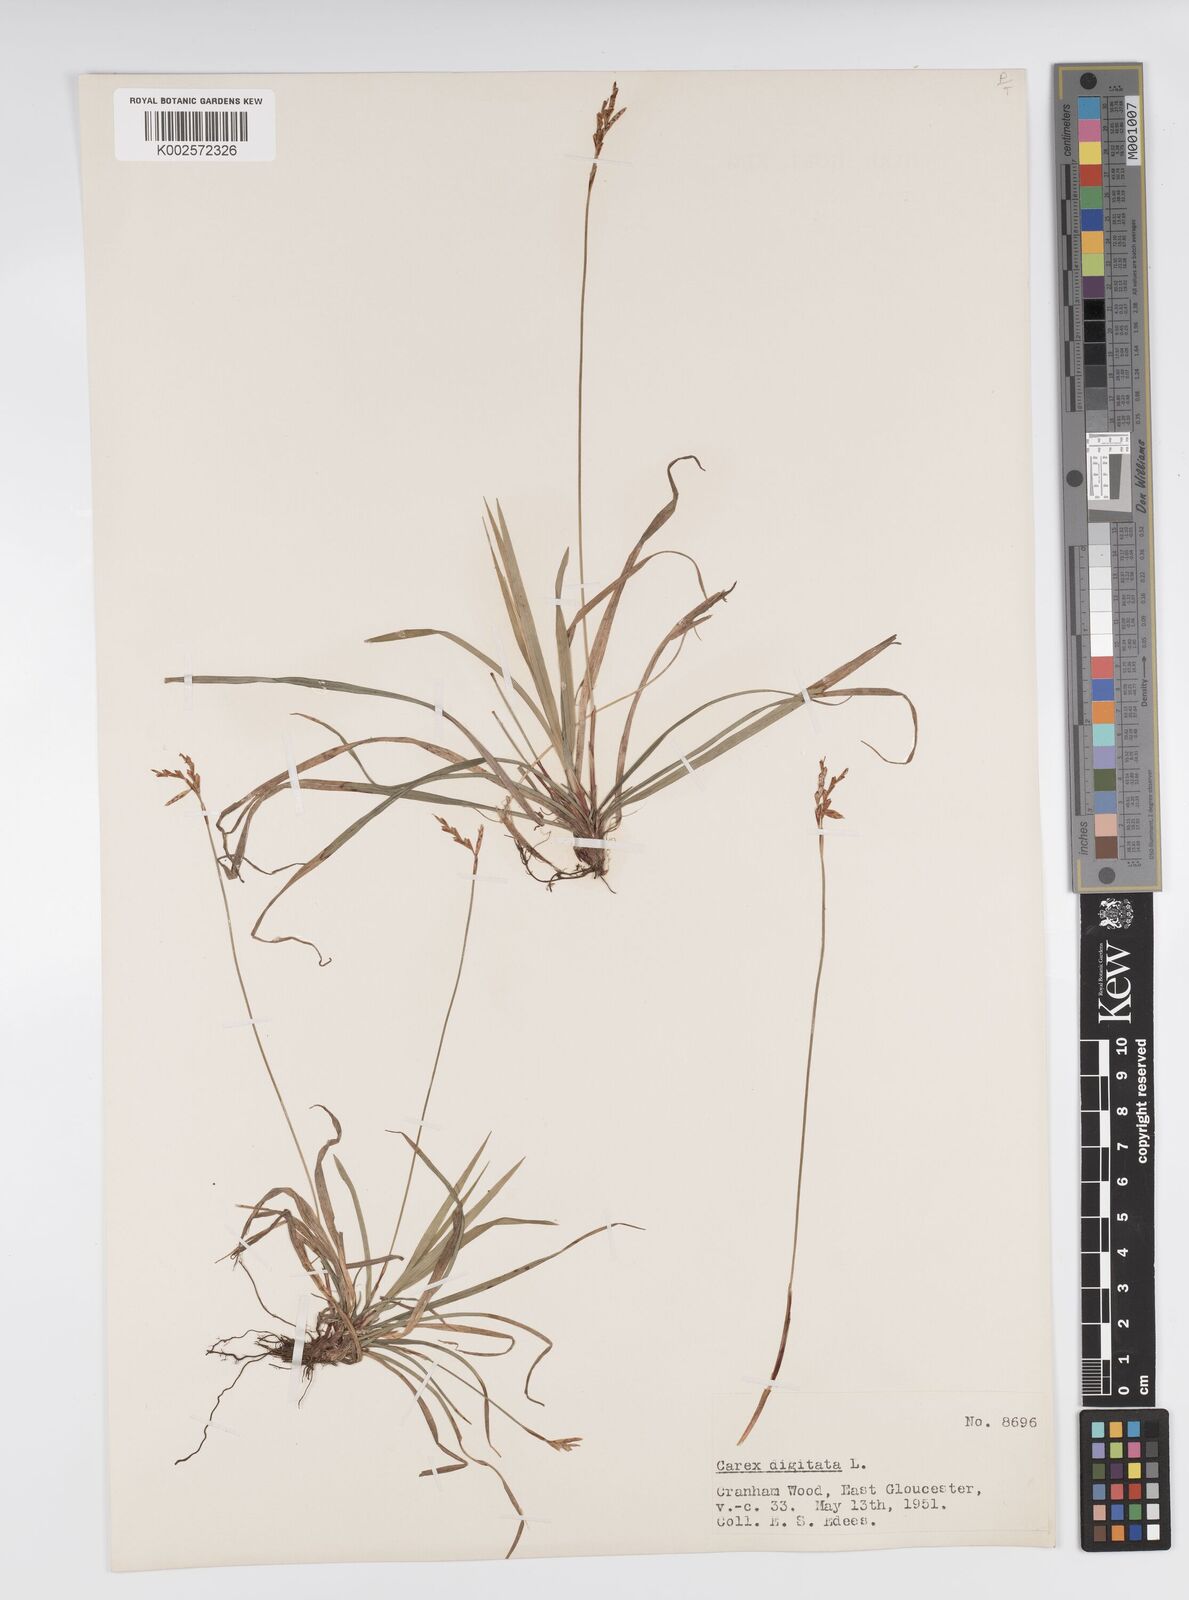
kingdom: Plantae
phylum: Tracheophyta
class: Liliopsida
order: Poales
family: Cyperaceae
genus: Carex
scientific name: Carex digitata
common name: Fingered sedge
